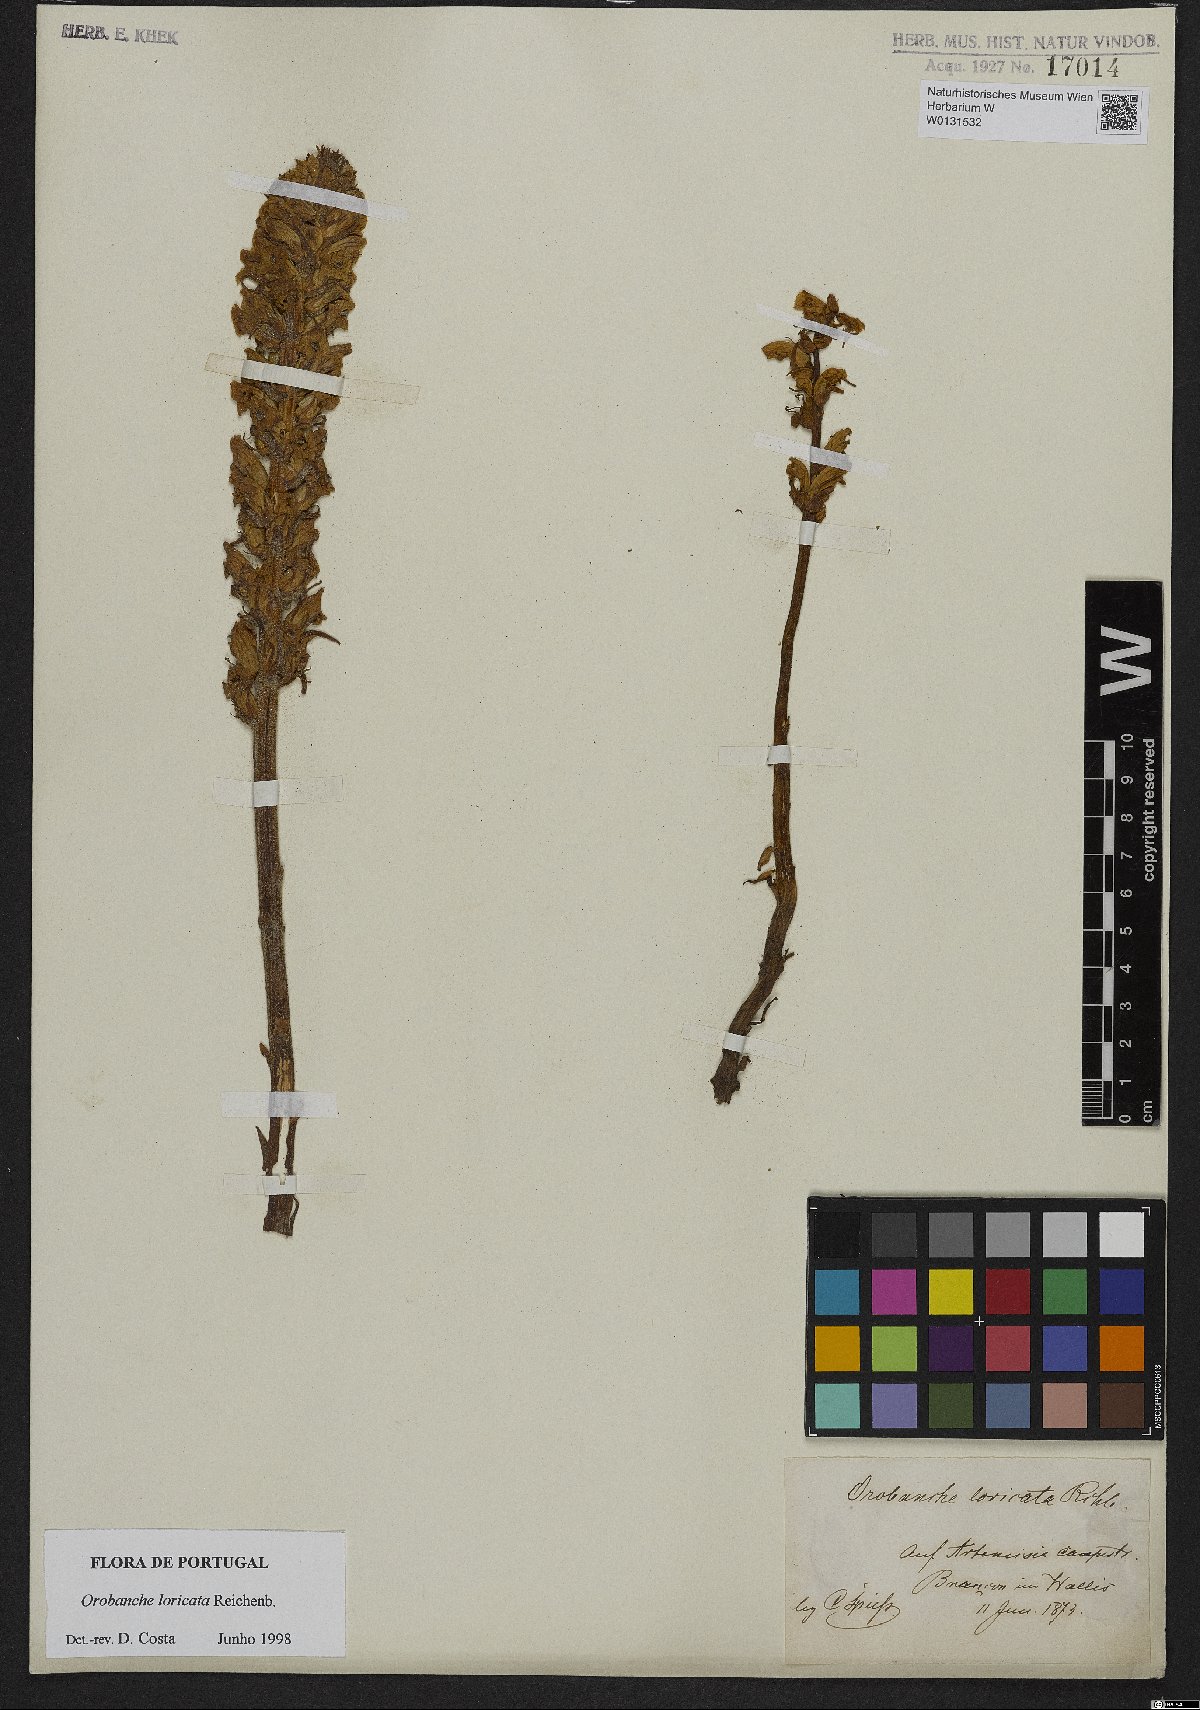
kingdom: Plantae
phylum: Tracheophyta
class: Magnoliopsida
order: Lamiales
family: Orobanchaceae
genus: Orobanche
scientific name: Orobanche artemisiae-campestris
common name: Oxtongue broomrape
